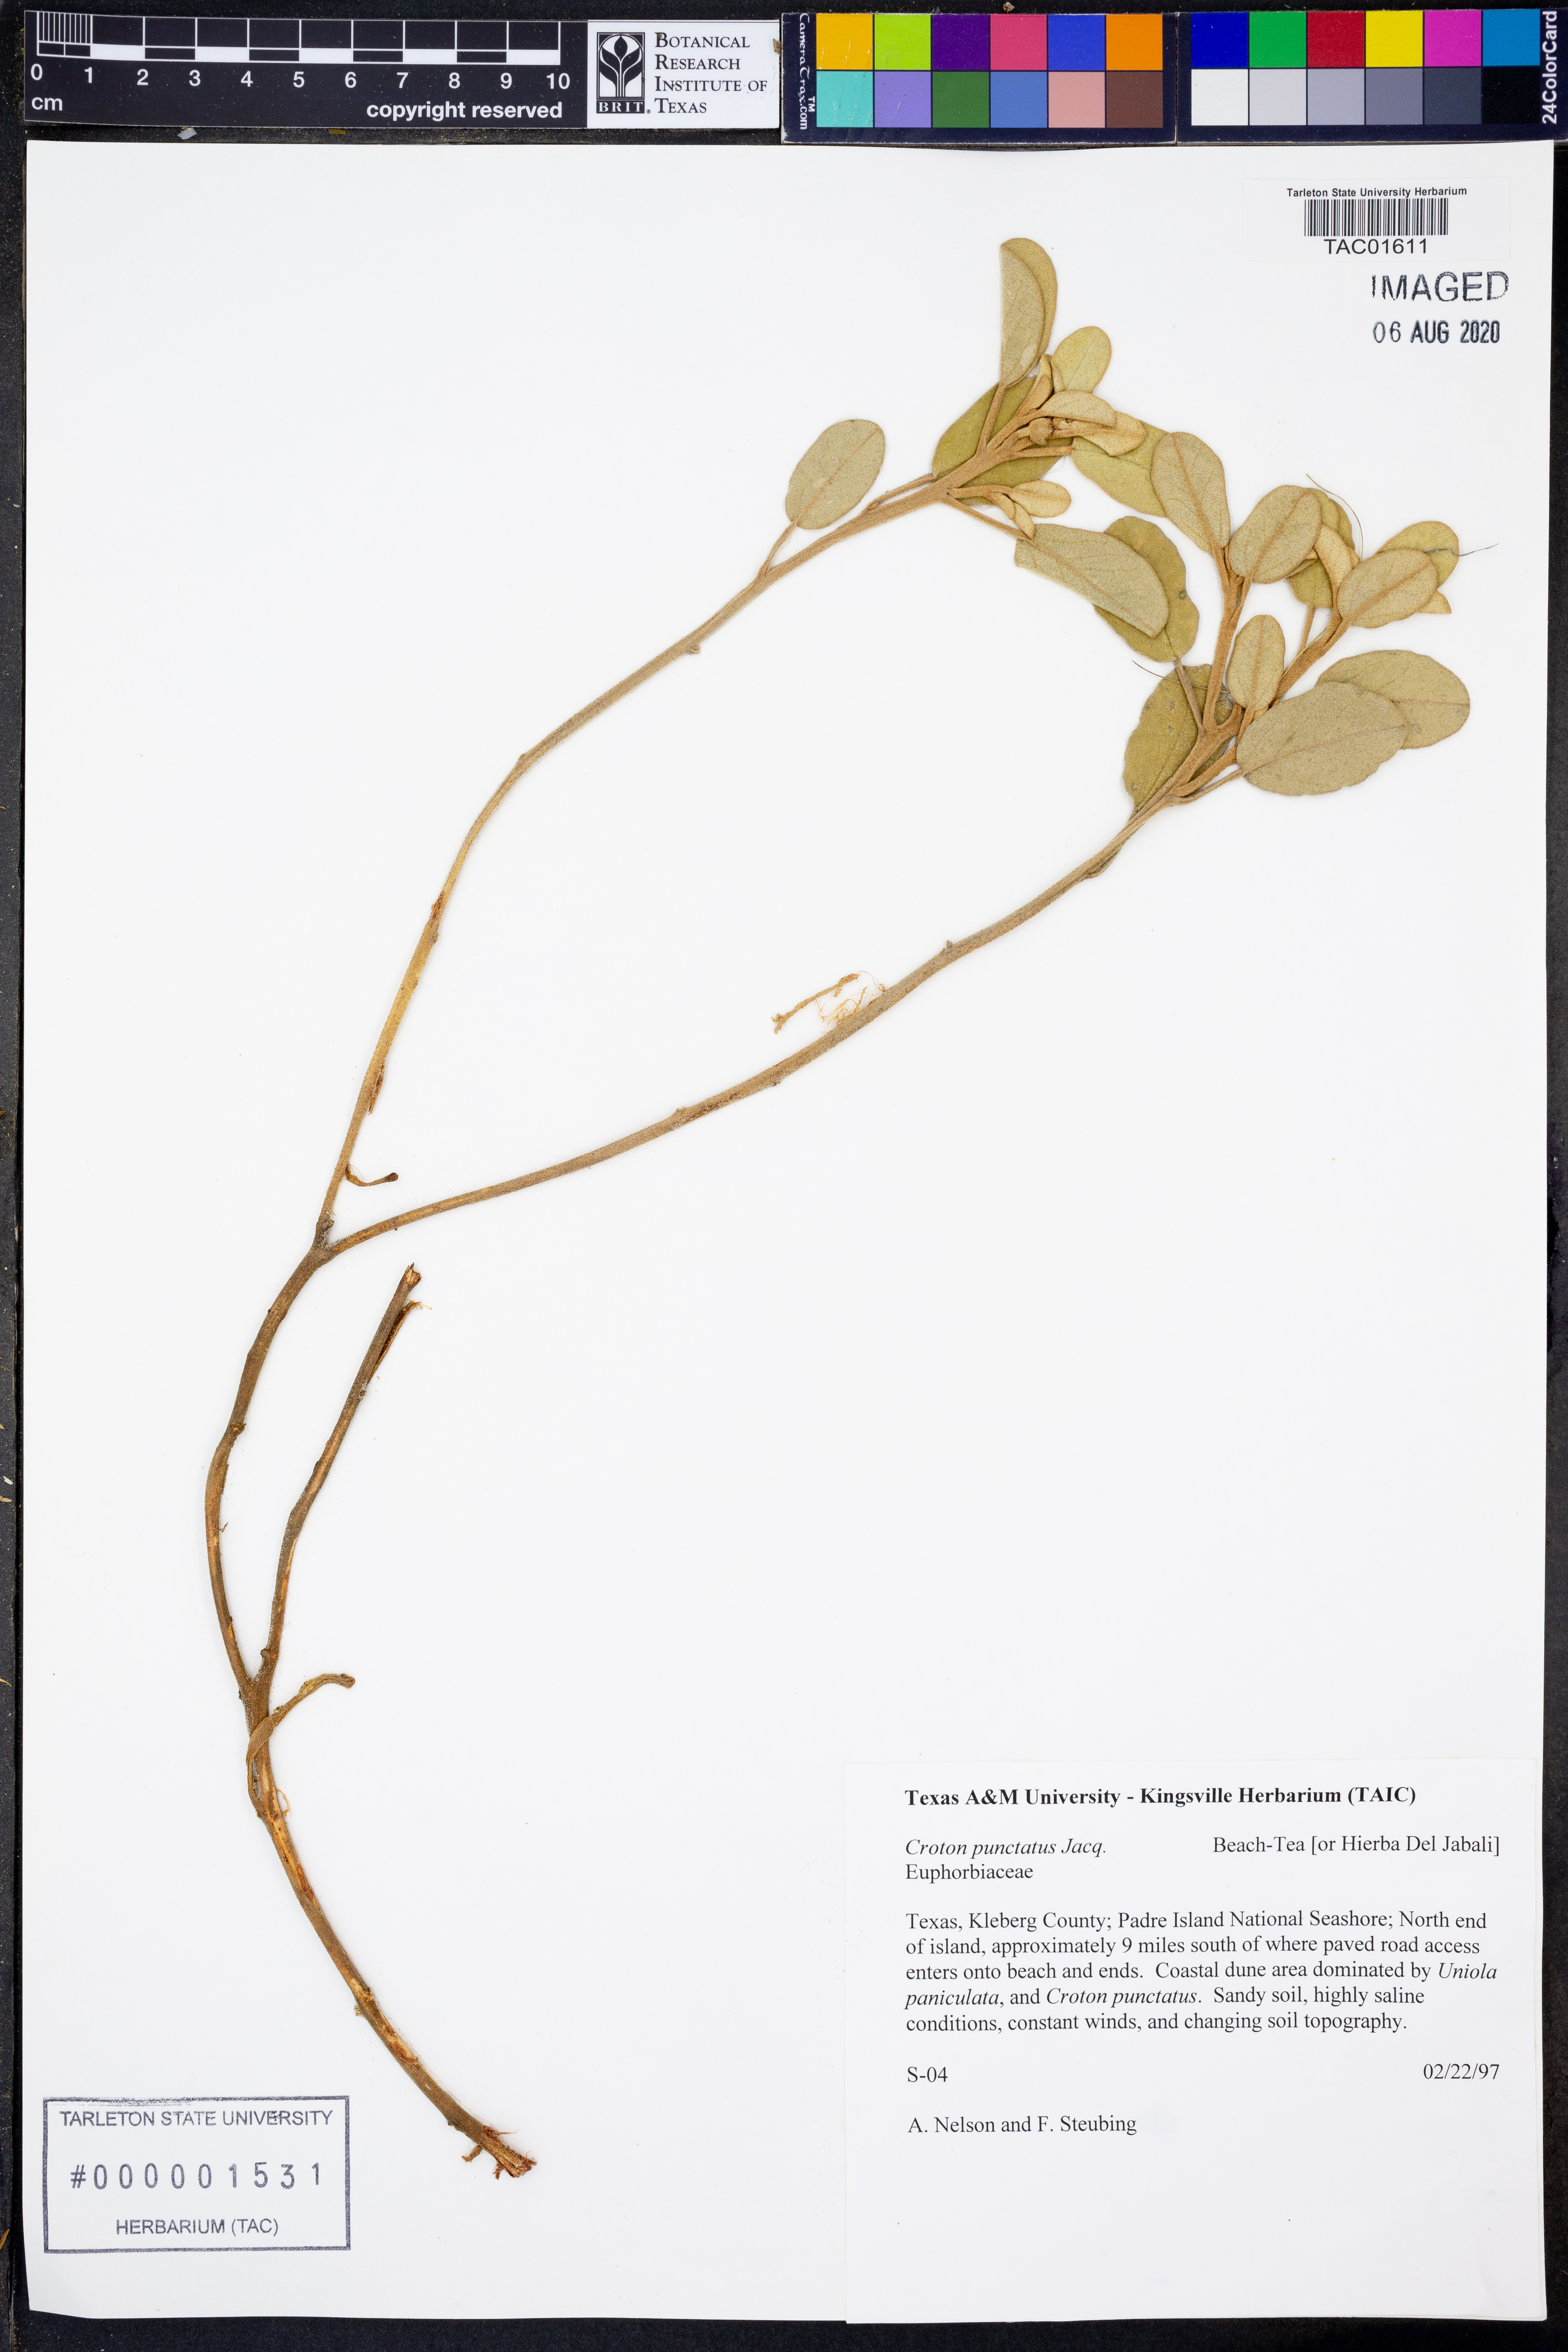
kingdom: Plantae
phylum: Tracheophyta
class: Magnoliopsida
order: Malpighiales
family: Euphorbiaceae
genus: Croton
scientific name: Croton punctatus
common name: Beach-tea
